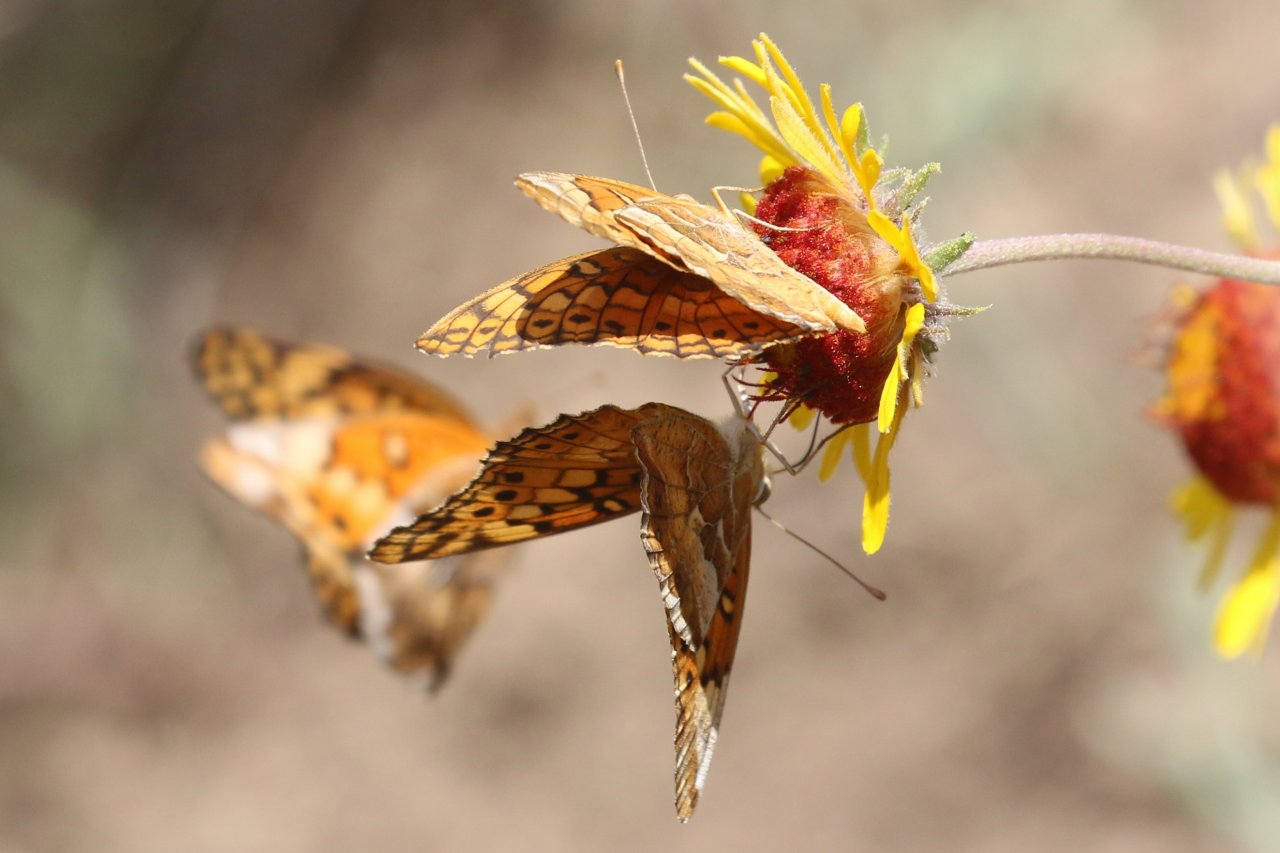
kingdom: Animalia
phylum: Arthropoda
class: Insecta
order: Lepidoptera
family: Nymphalidae
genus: Euptoieta
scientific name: Euptoieta claudia
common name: Variegated Fritillary
